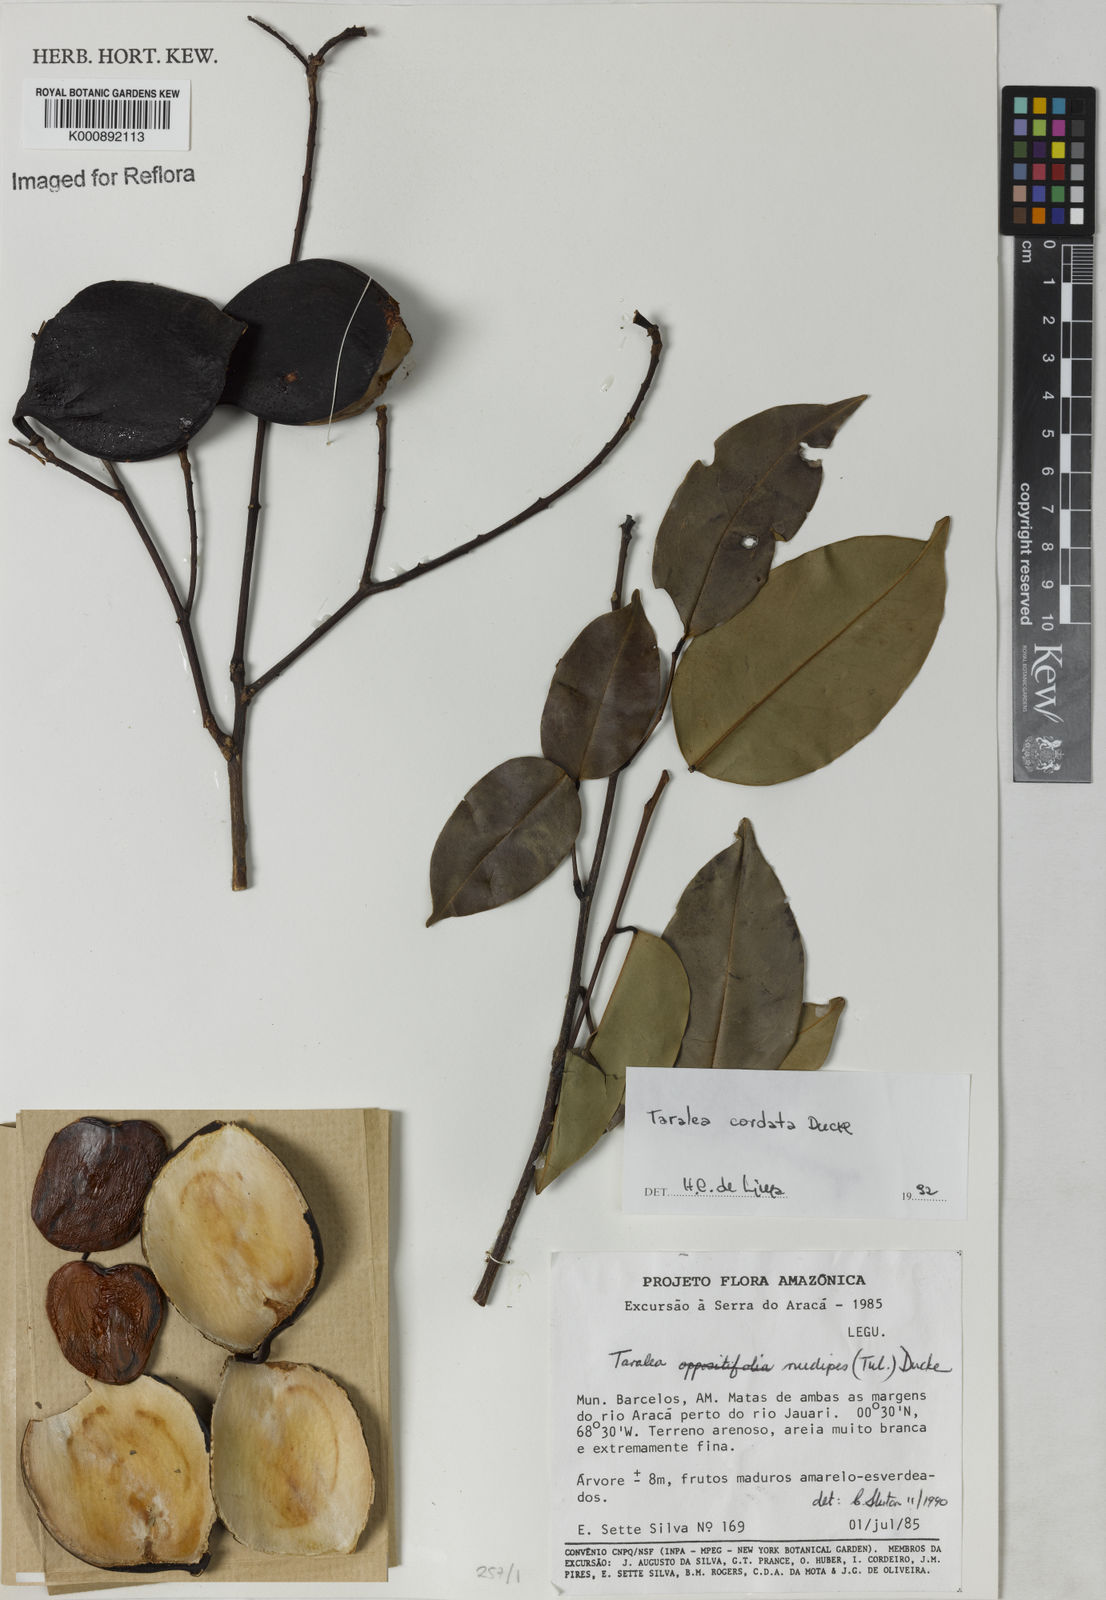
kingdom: Plantae
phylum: Tracheophyta
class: Magnoliopsida
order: Fabales
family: Fabaceae
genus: Taralea
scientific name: Taralea cordata
